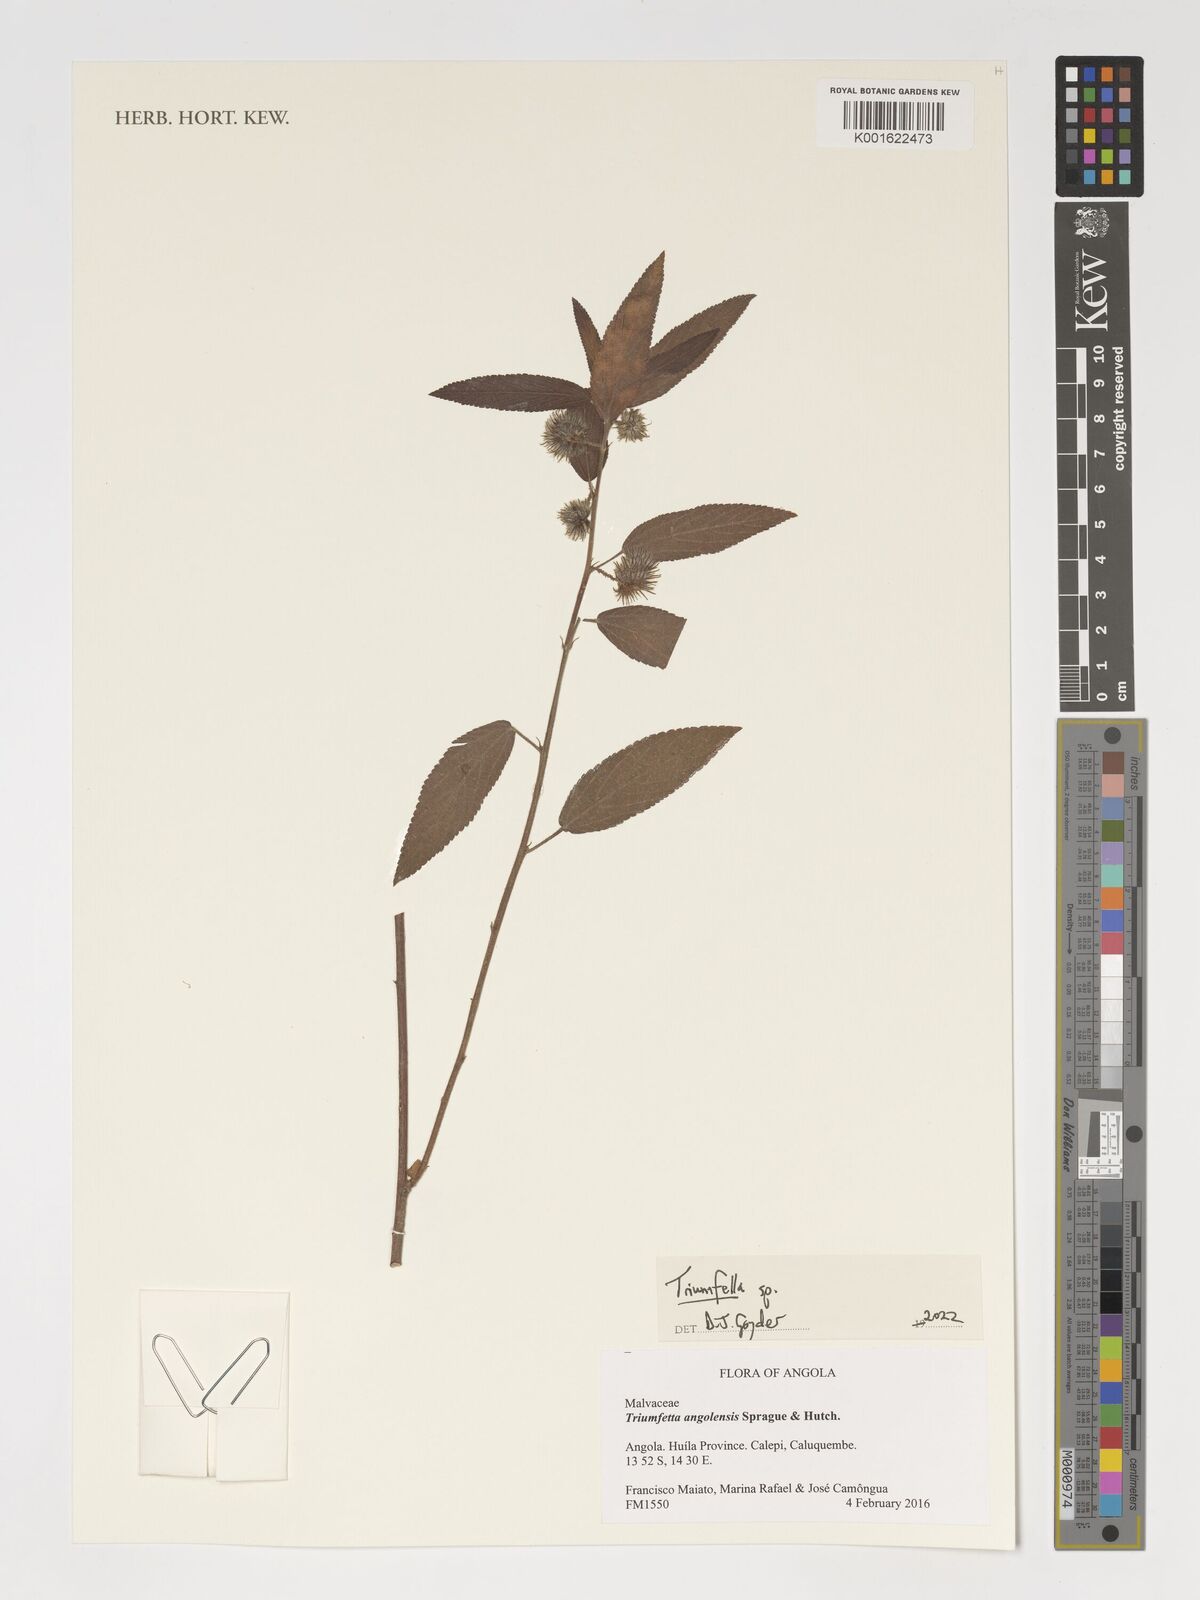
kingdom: Plantae
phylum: Tracheophyta
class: Magnoliopsida
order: Malvales
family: Malvaceae
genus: Triumfetta
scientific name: Triumfetta
